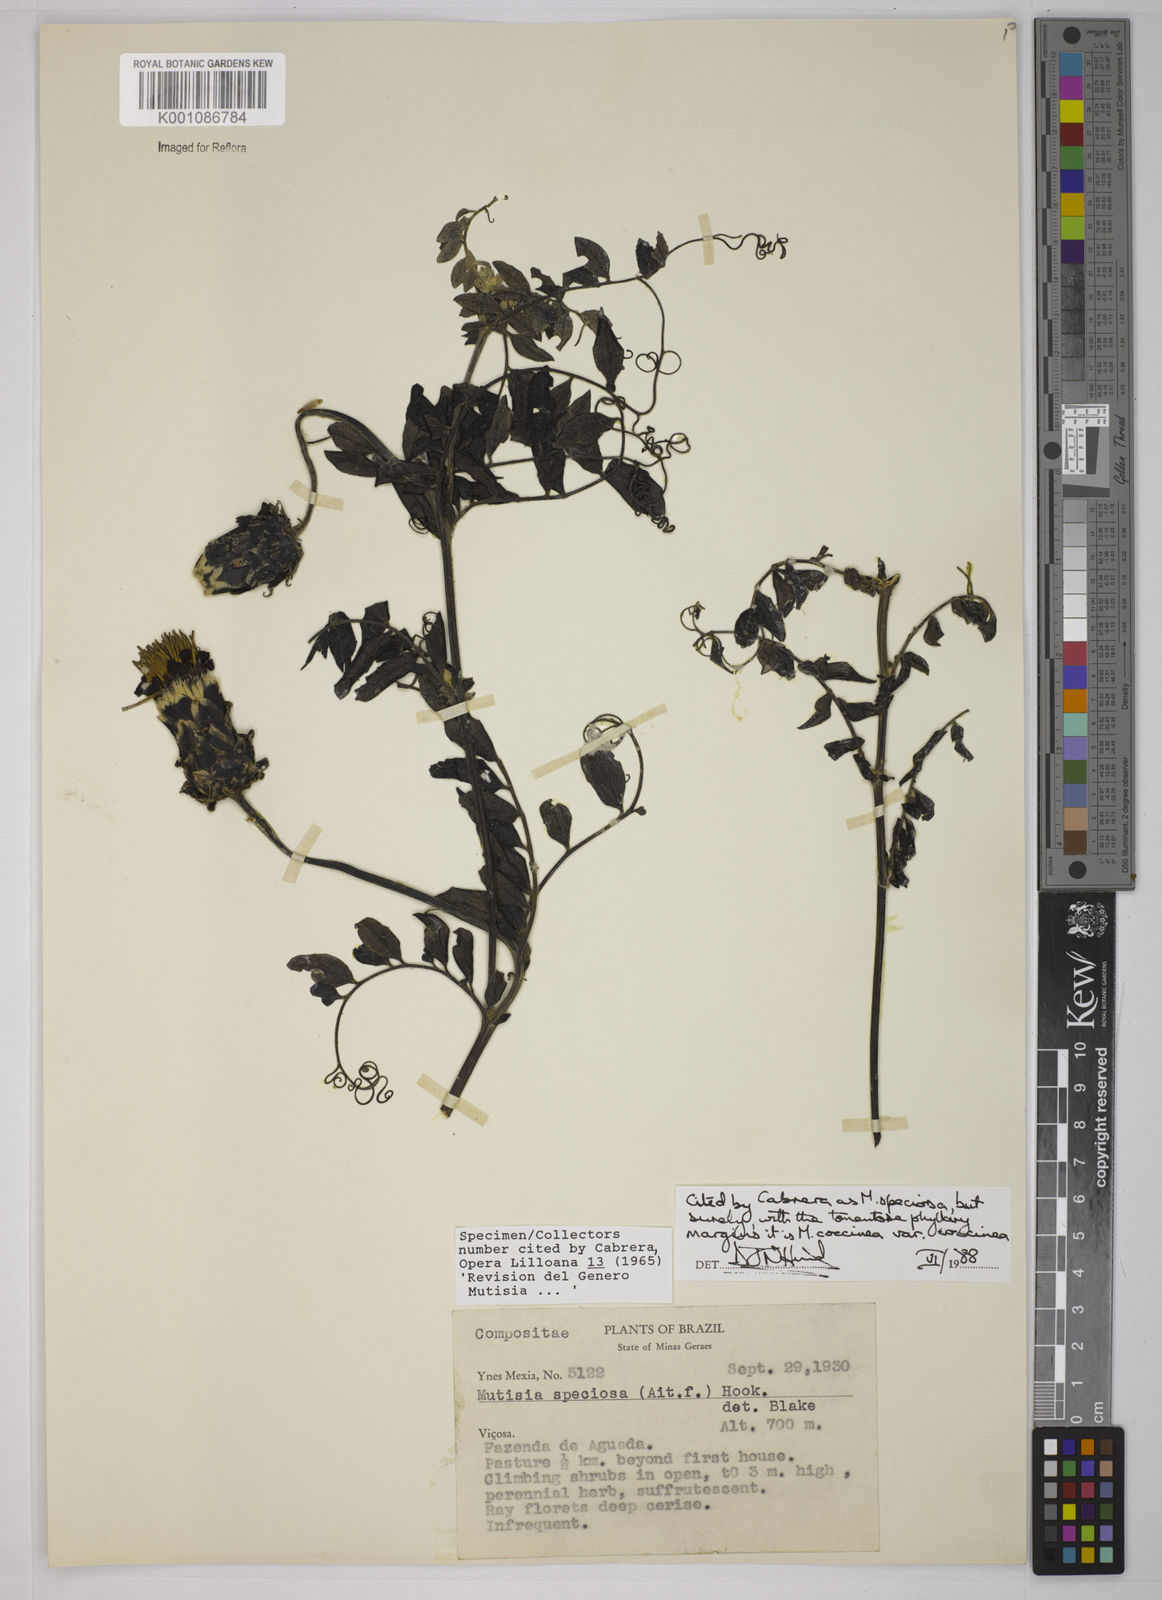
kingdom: Plantae
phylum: Tracheophyta
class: Magnoliopsida
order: Asterales
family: Asteraceae
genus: Mutisia
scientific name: Mutisia coccinea
